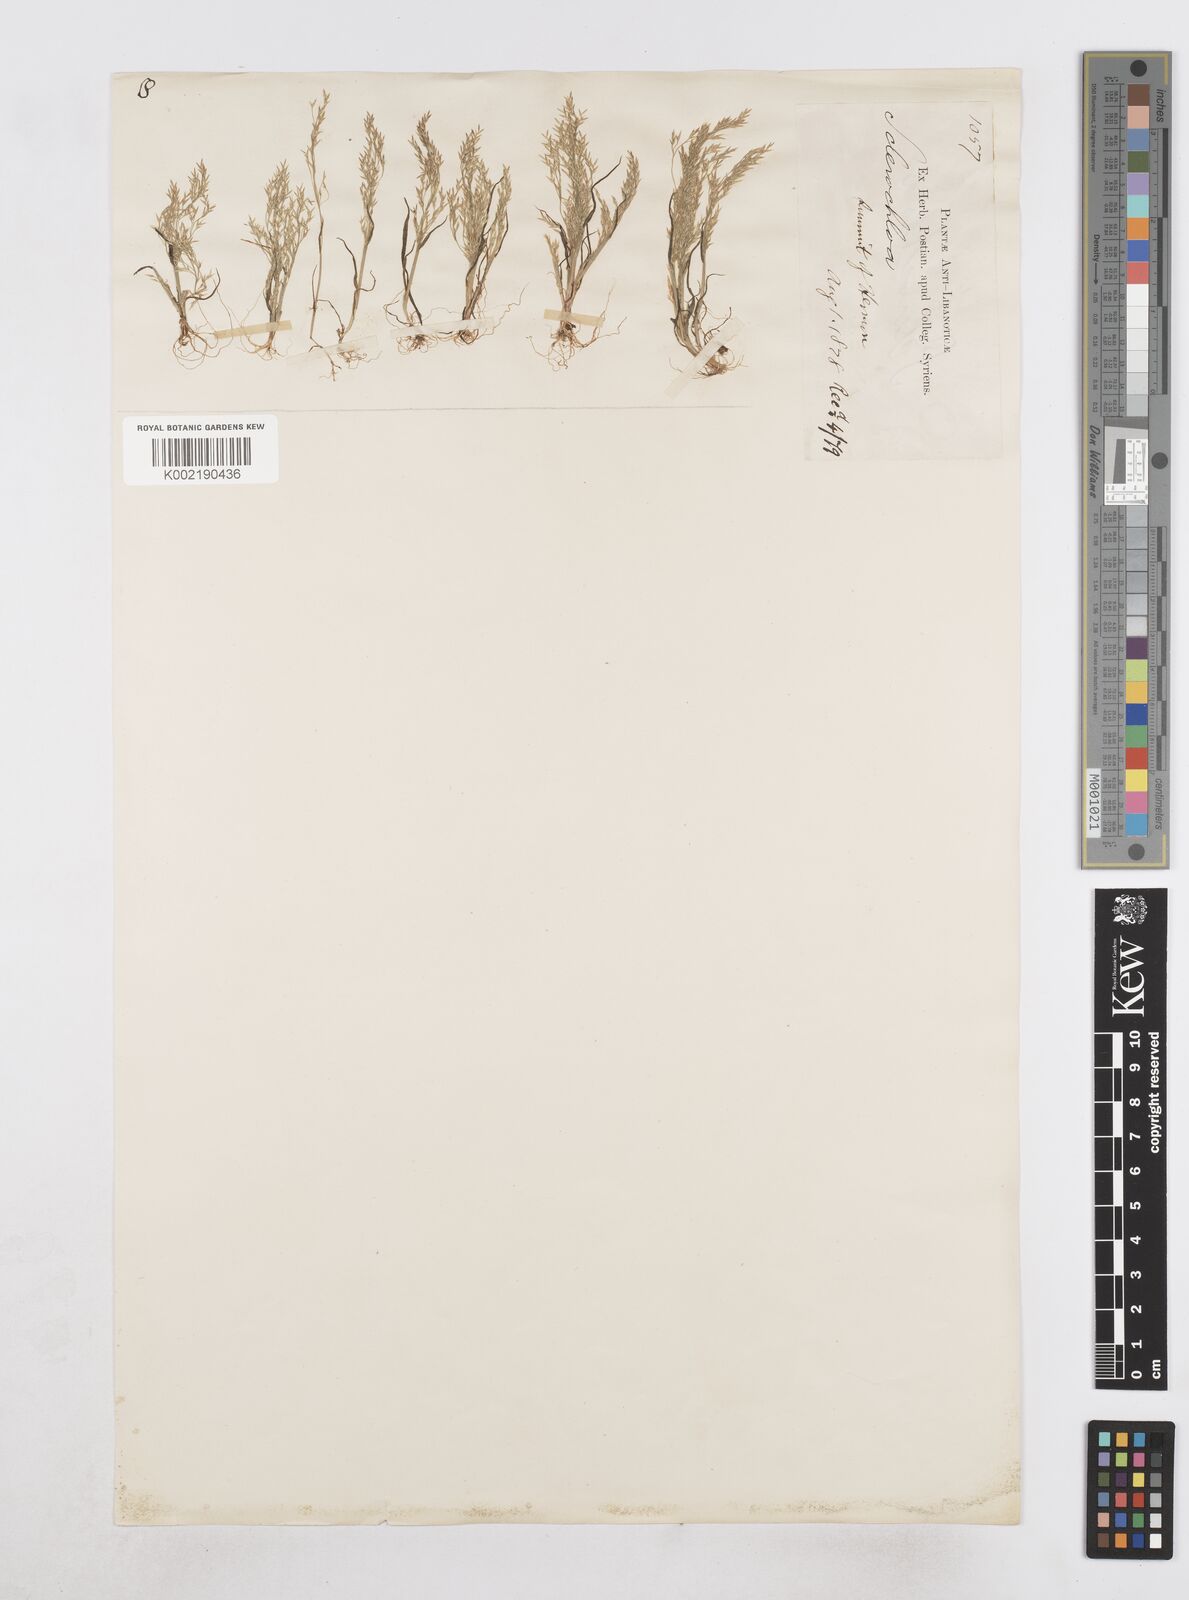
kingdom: Plantae
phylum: Tracheophyta
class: Liliopsida
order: Poales
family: Poaceae
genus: Poa
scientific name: Poa diaphora
